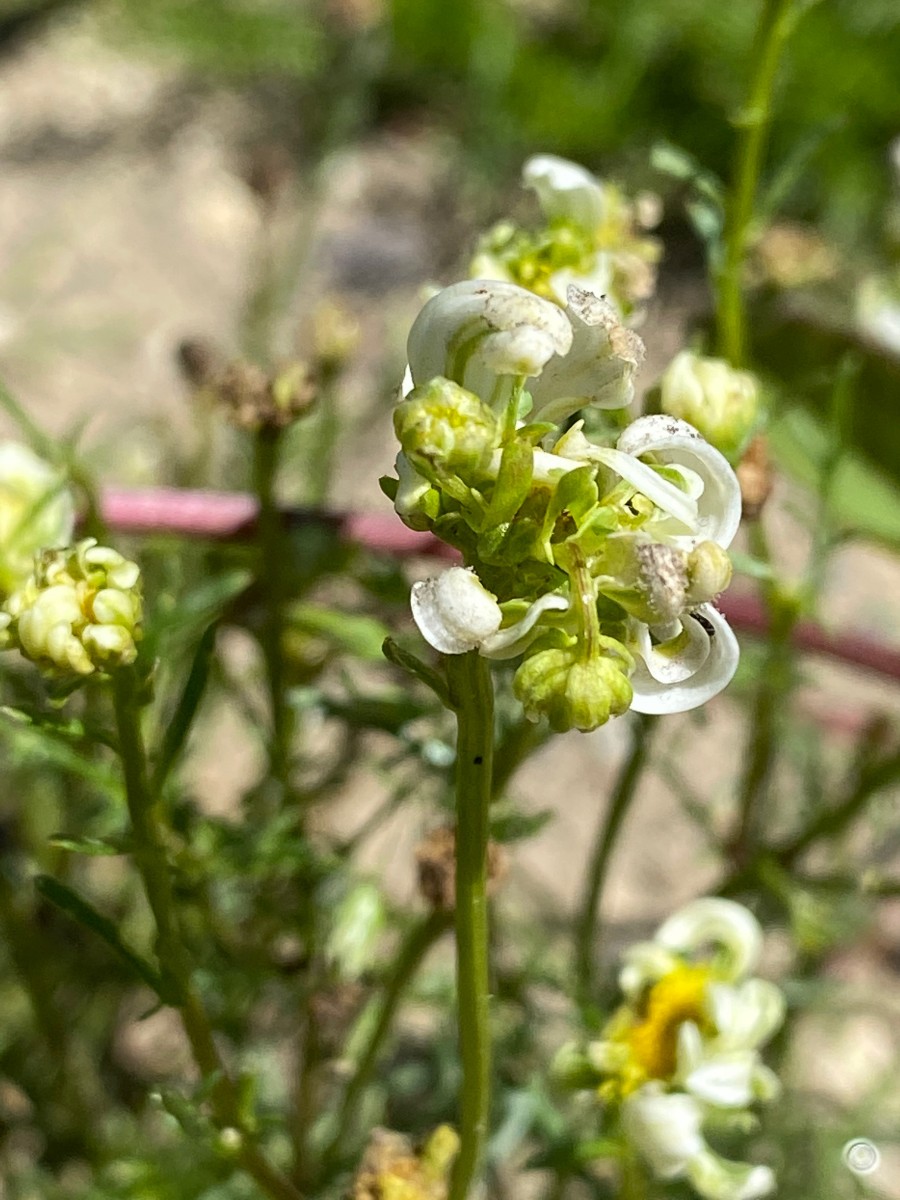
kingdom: Chromista
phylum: Oomycota
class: Peronosporea
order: Peronosporales
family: Peronosporaceae
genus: Peronospora
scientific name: Peronospora radii
